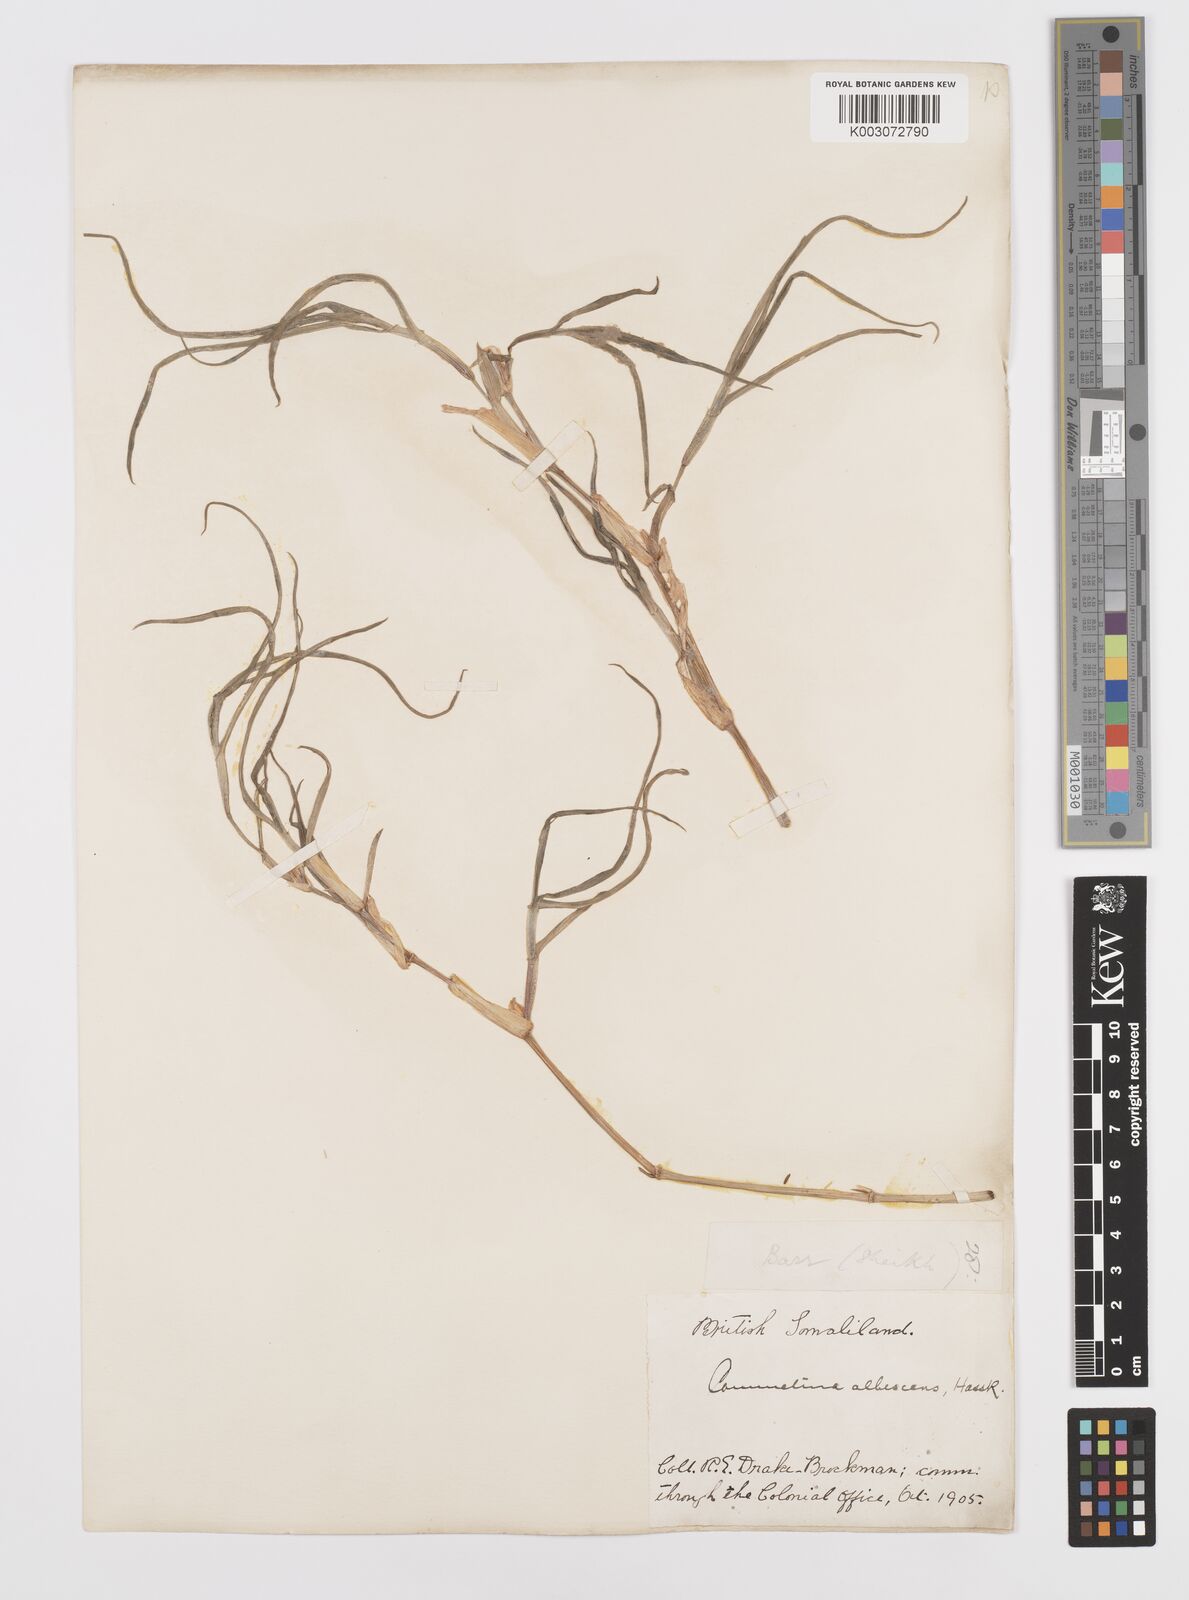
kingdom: Plantae
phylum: Tracheophyta
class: Liliopsida
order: Commelinales
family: Commelinaceae
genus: Commelina
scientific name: Commelina albescens
